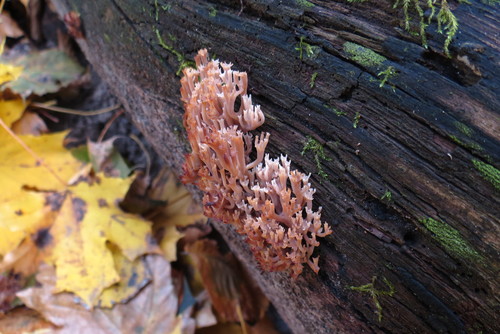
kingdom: Fungi
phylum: Basidiomycota
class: Agaricomycetes
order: Russulales
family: Auriscalpiaceae
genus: Artomyces
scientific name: Artomyces pyxidatus
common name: Crown-tipped coral fungus
